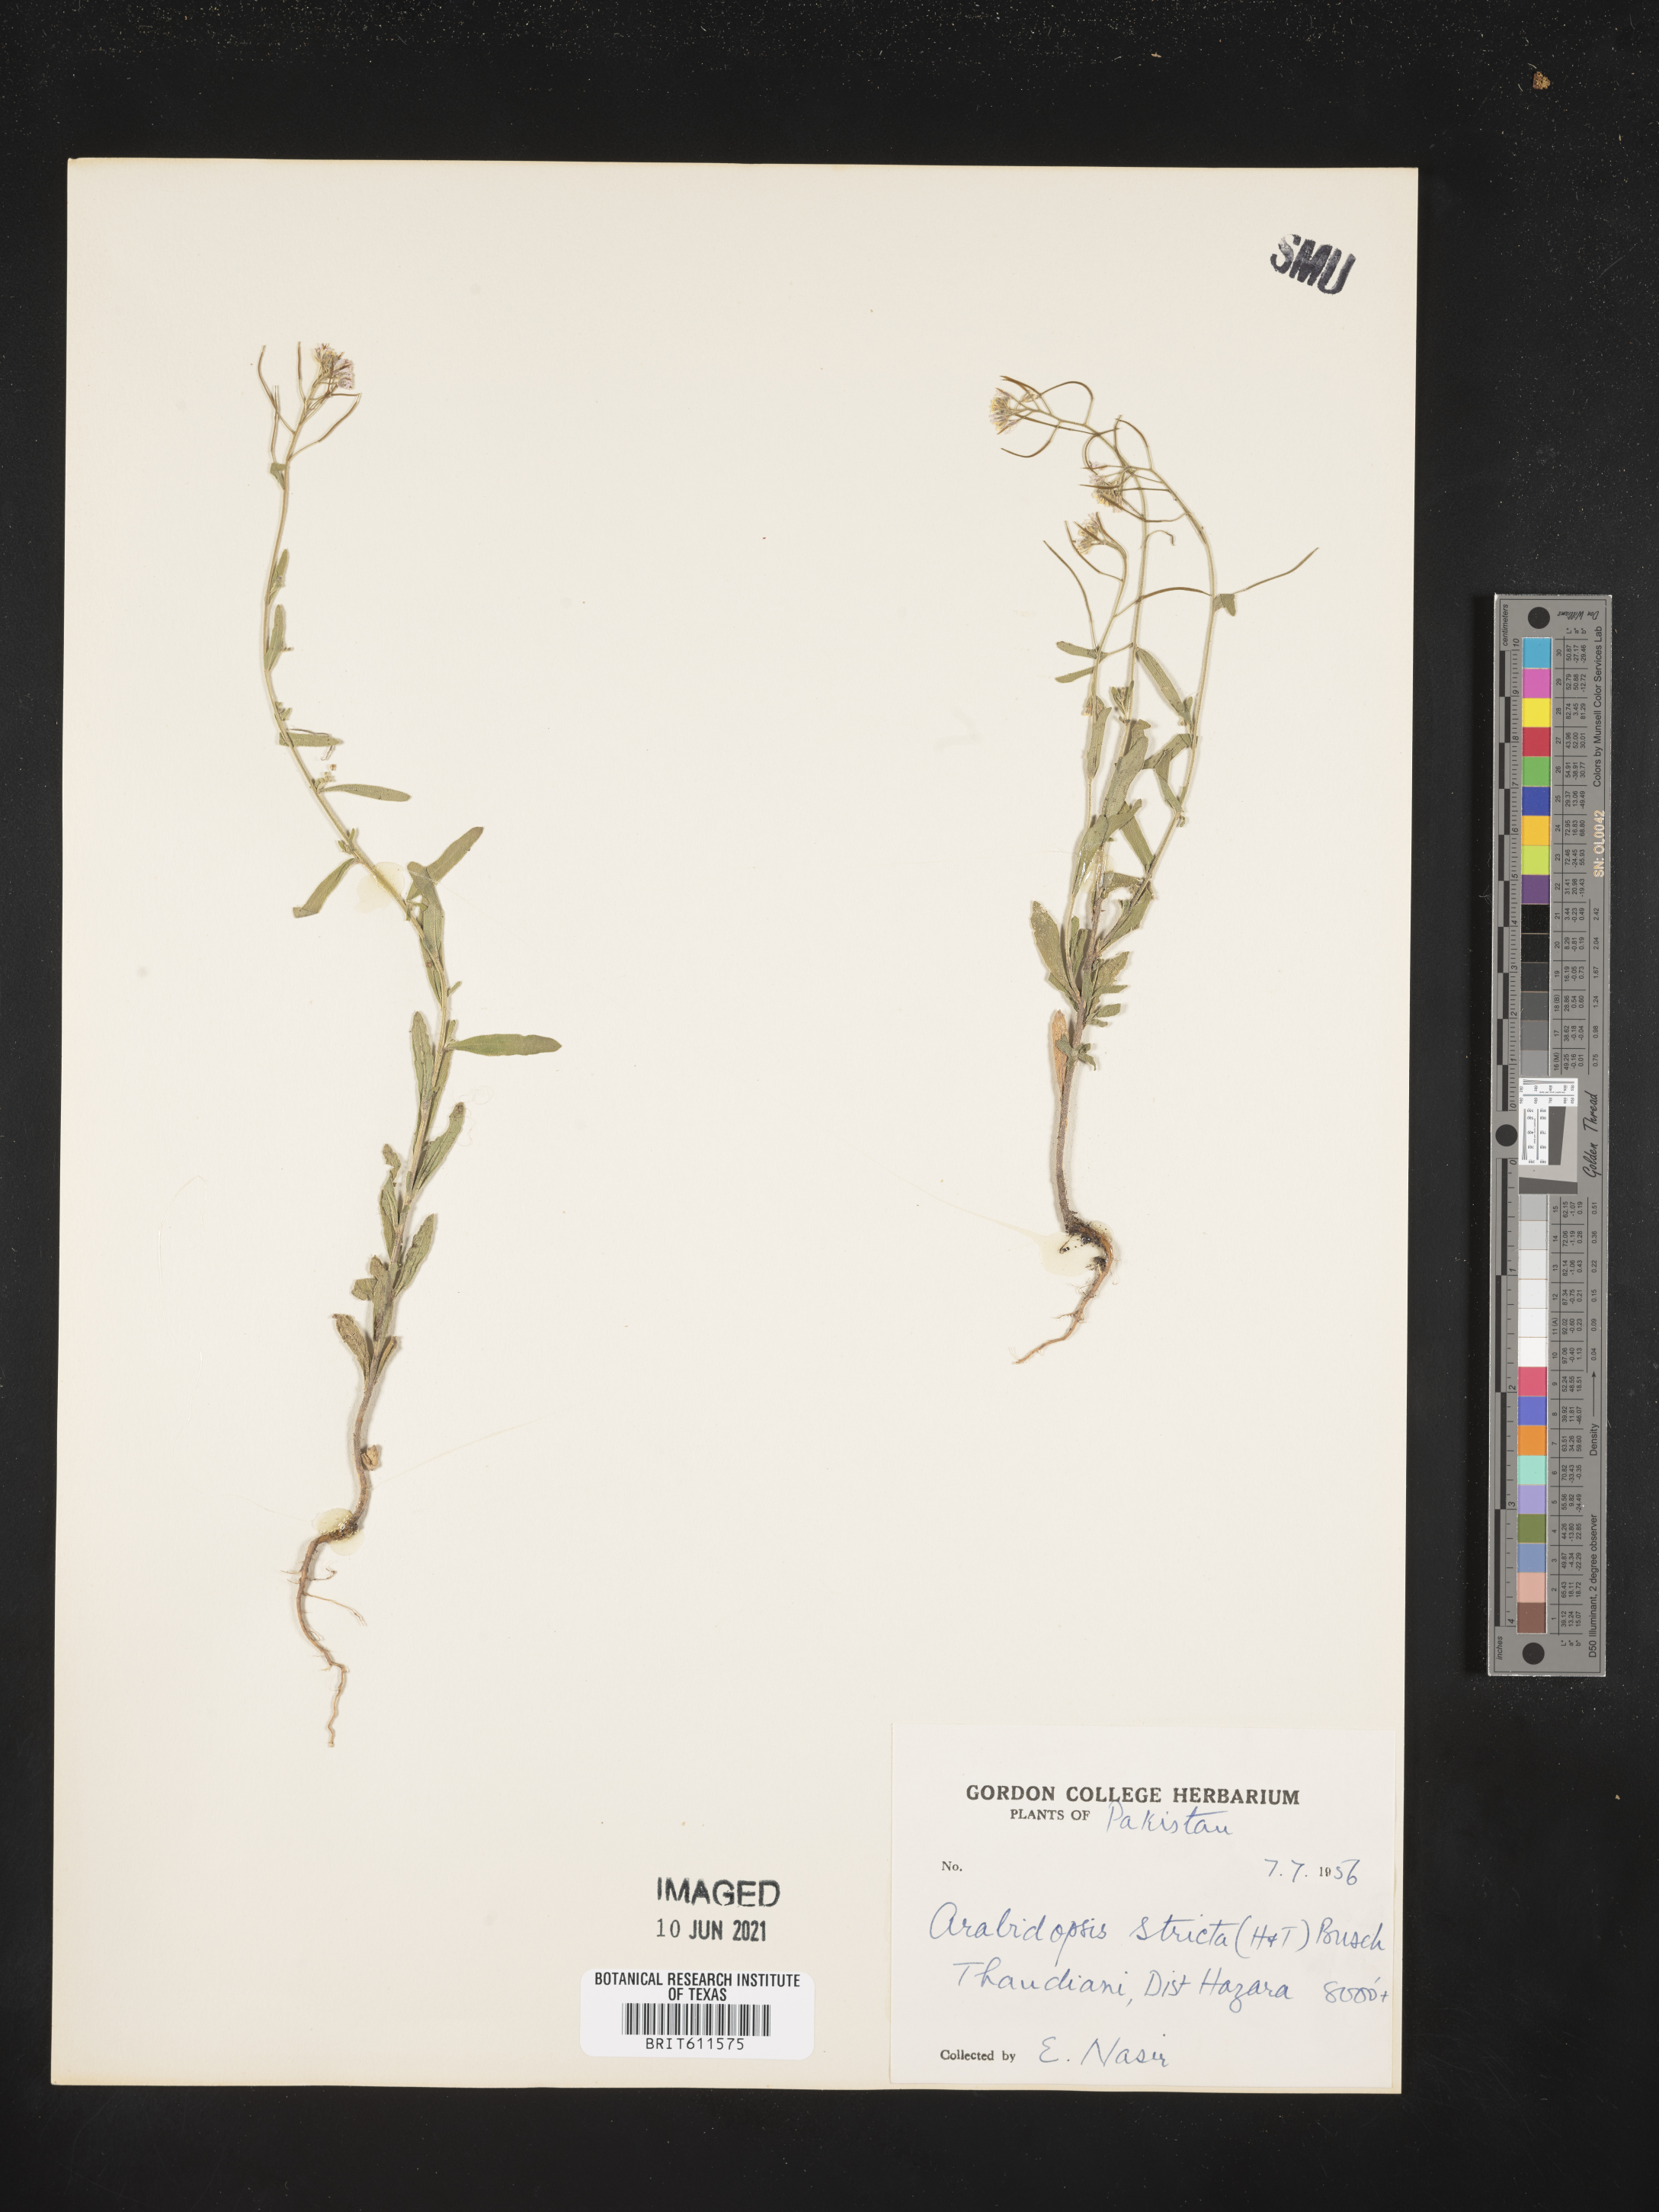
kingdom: Plantae
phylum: Tracheophyta
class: Magnoliopsida
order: Brassicales
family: Brassicaceae
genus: Crucihimalaya
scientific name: Crucihimalaya stricta
